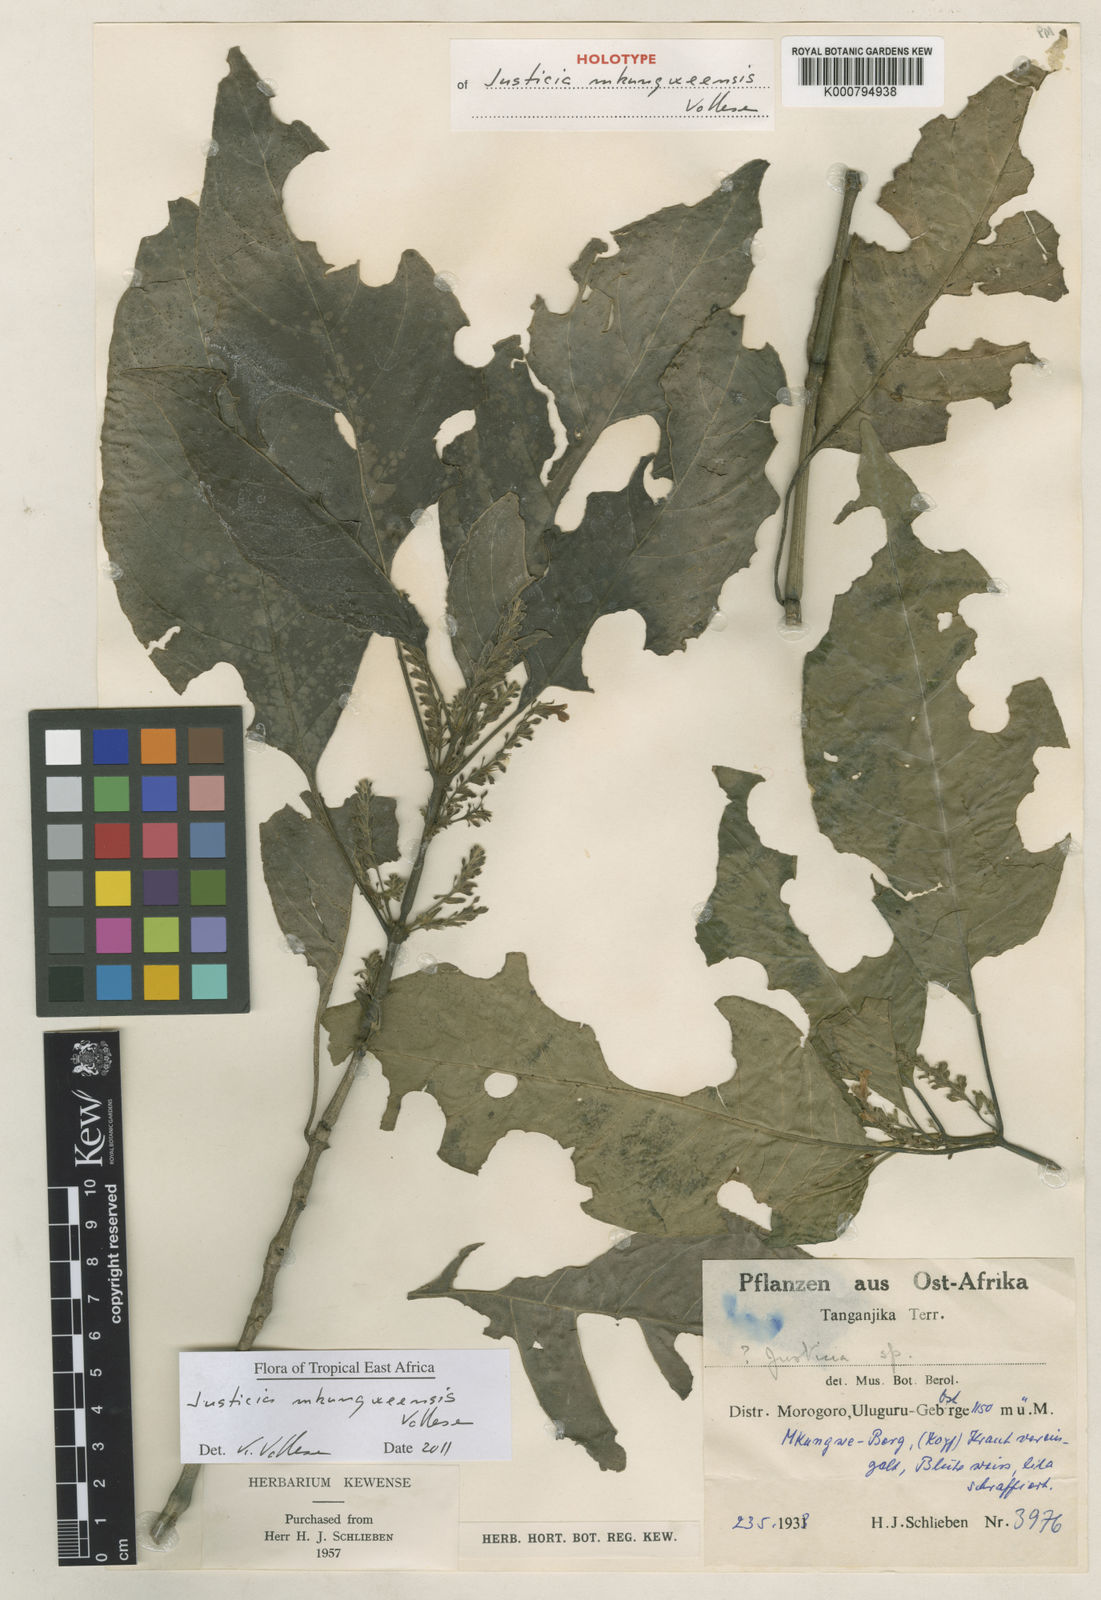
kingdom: Plantae
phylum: Tracheophyta
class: Magnoliopsida
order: Lamiales
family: Acanthaceae
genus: Justicia
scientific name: Justicia mkungweensis
